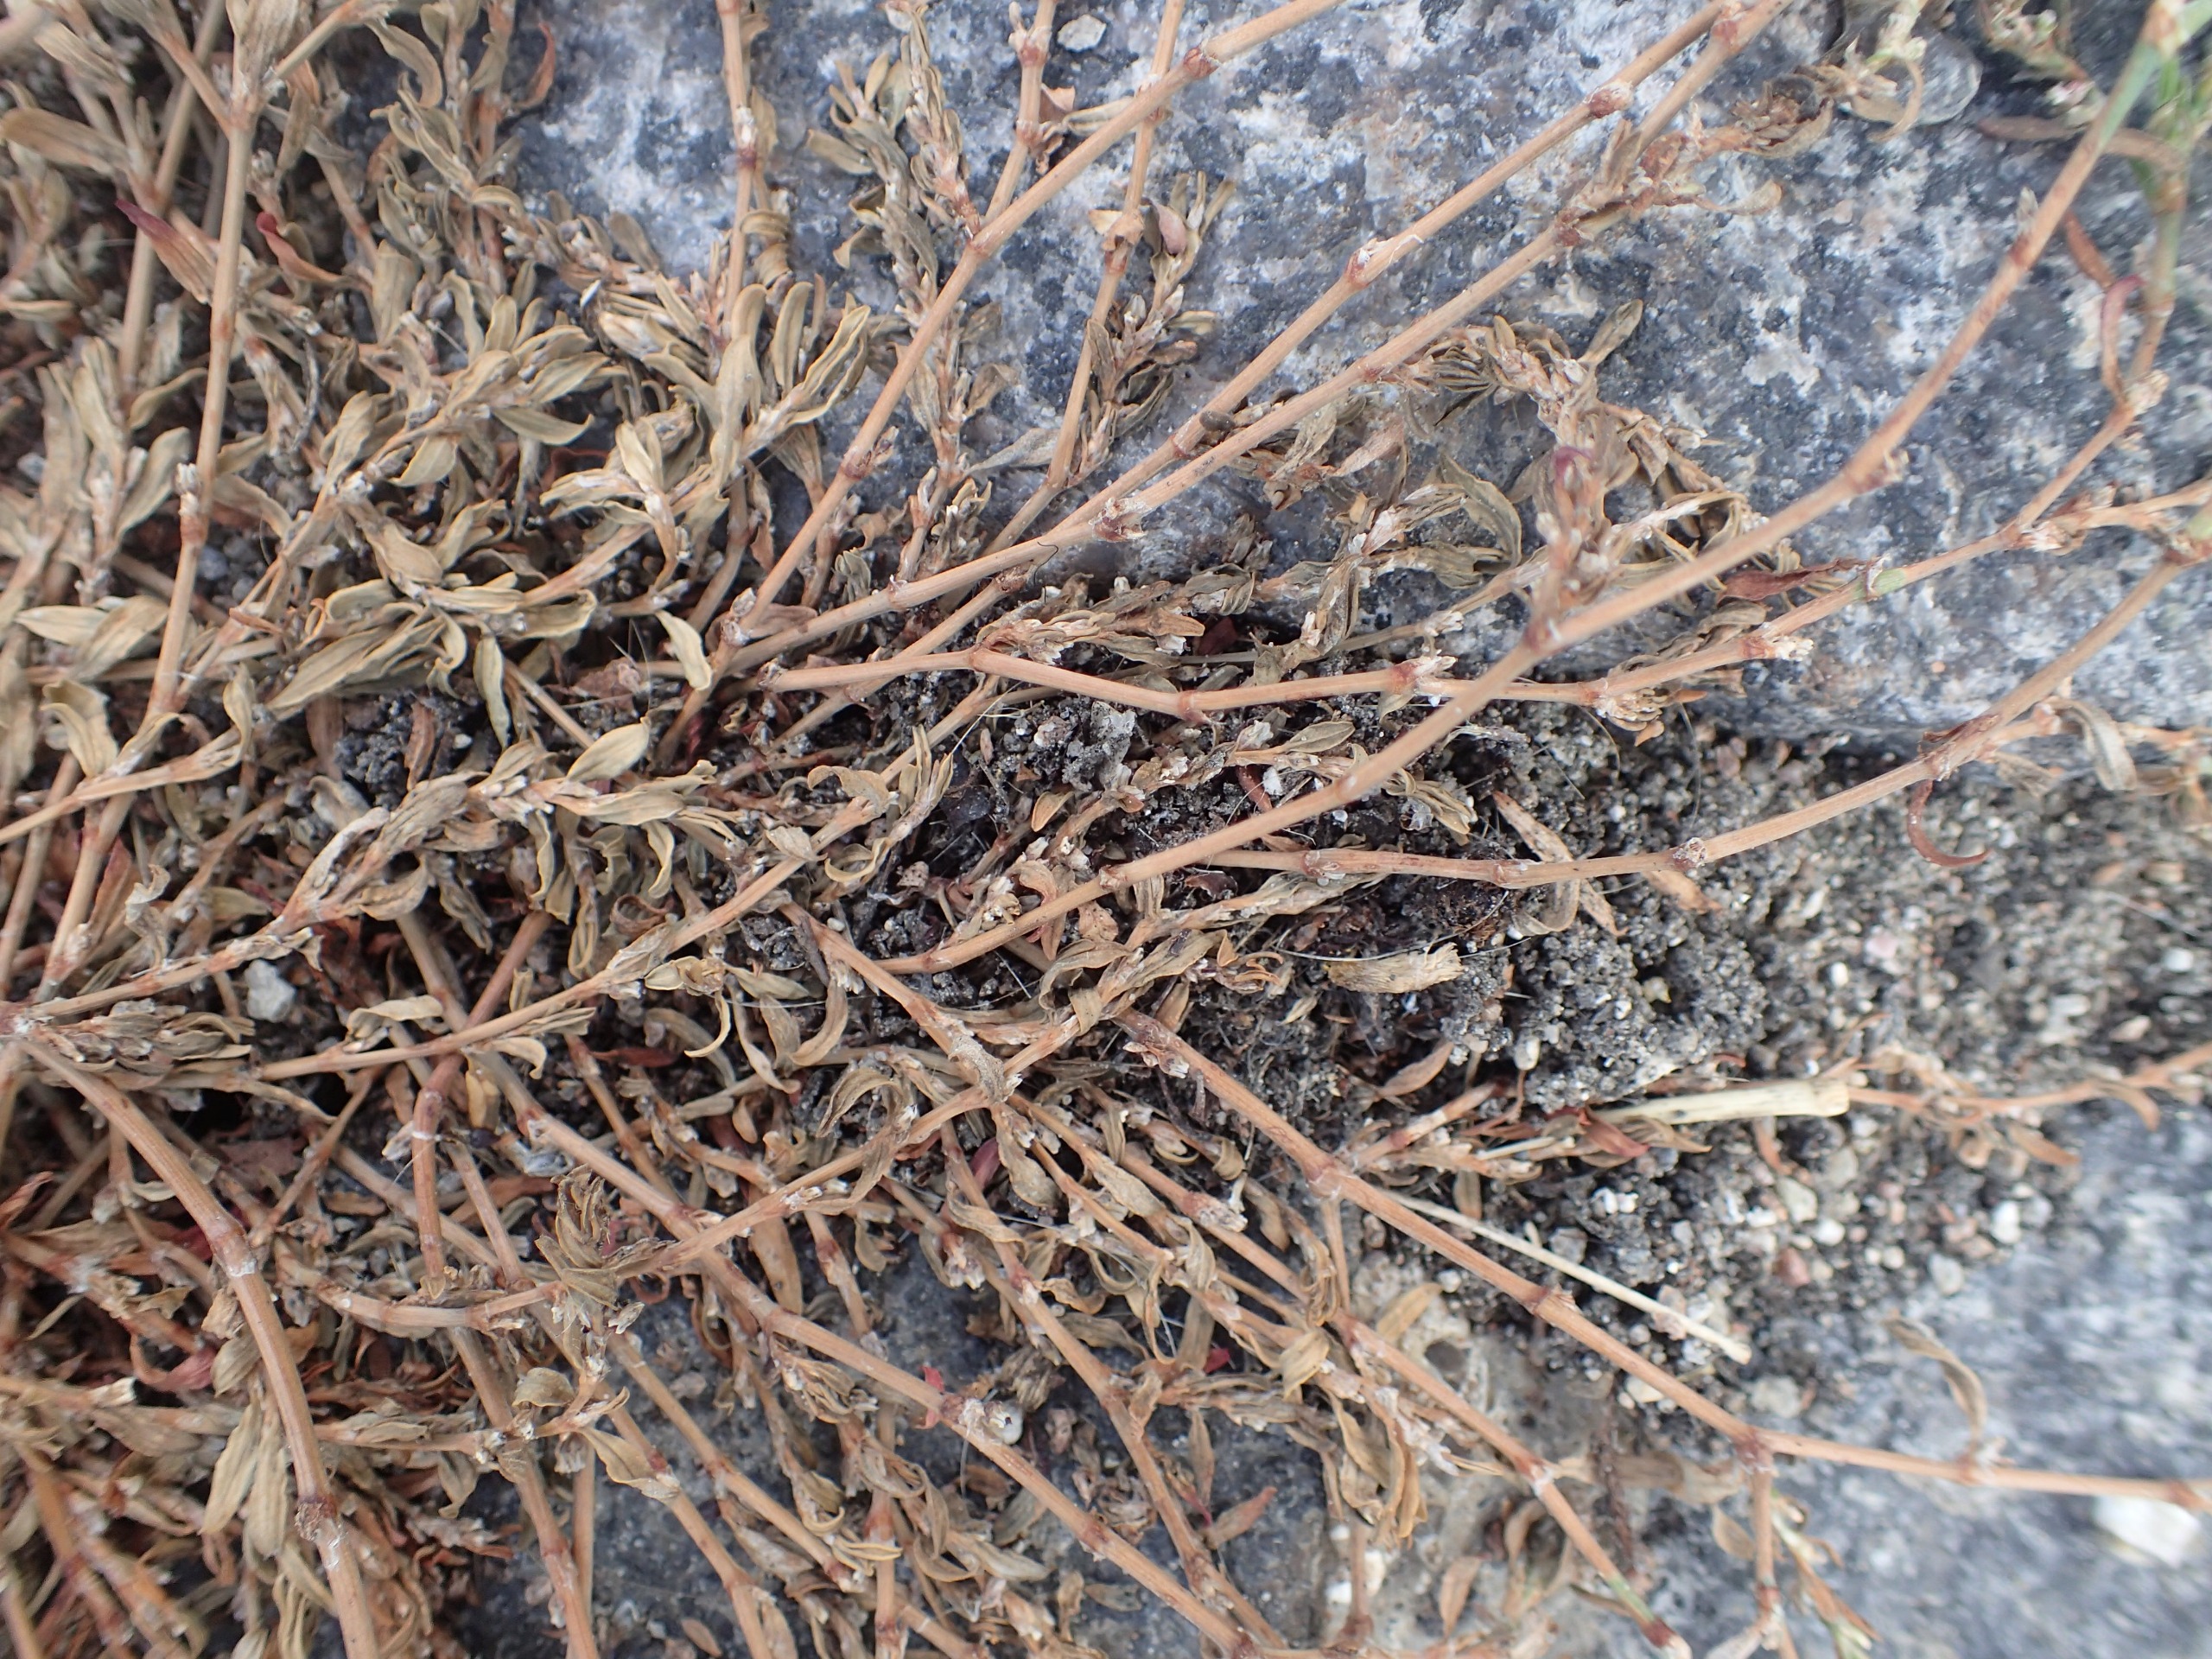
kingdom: Plantae
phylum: Tracheophyta
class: Magnoliopsida
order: Caryophyllales
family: Polygonaceae
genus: Polygonum
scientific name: Polygonum arenastrum
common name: Liggende vej-pileurt
